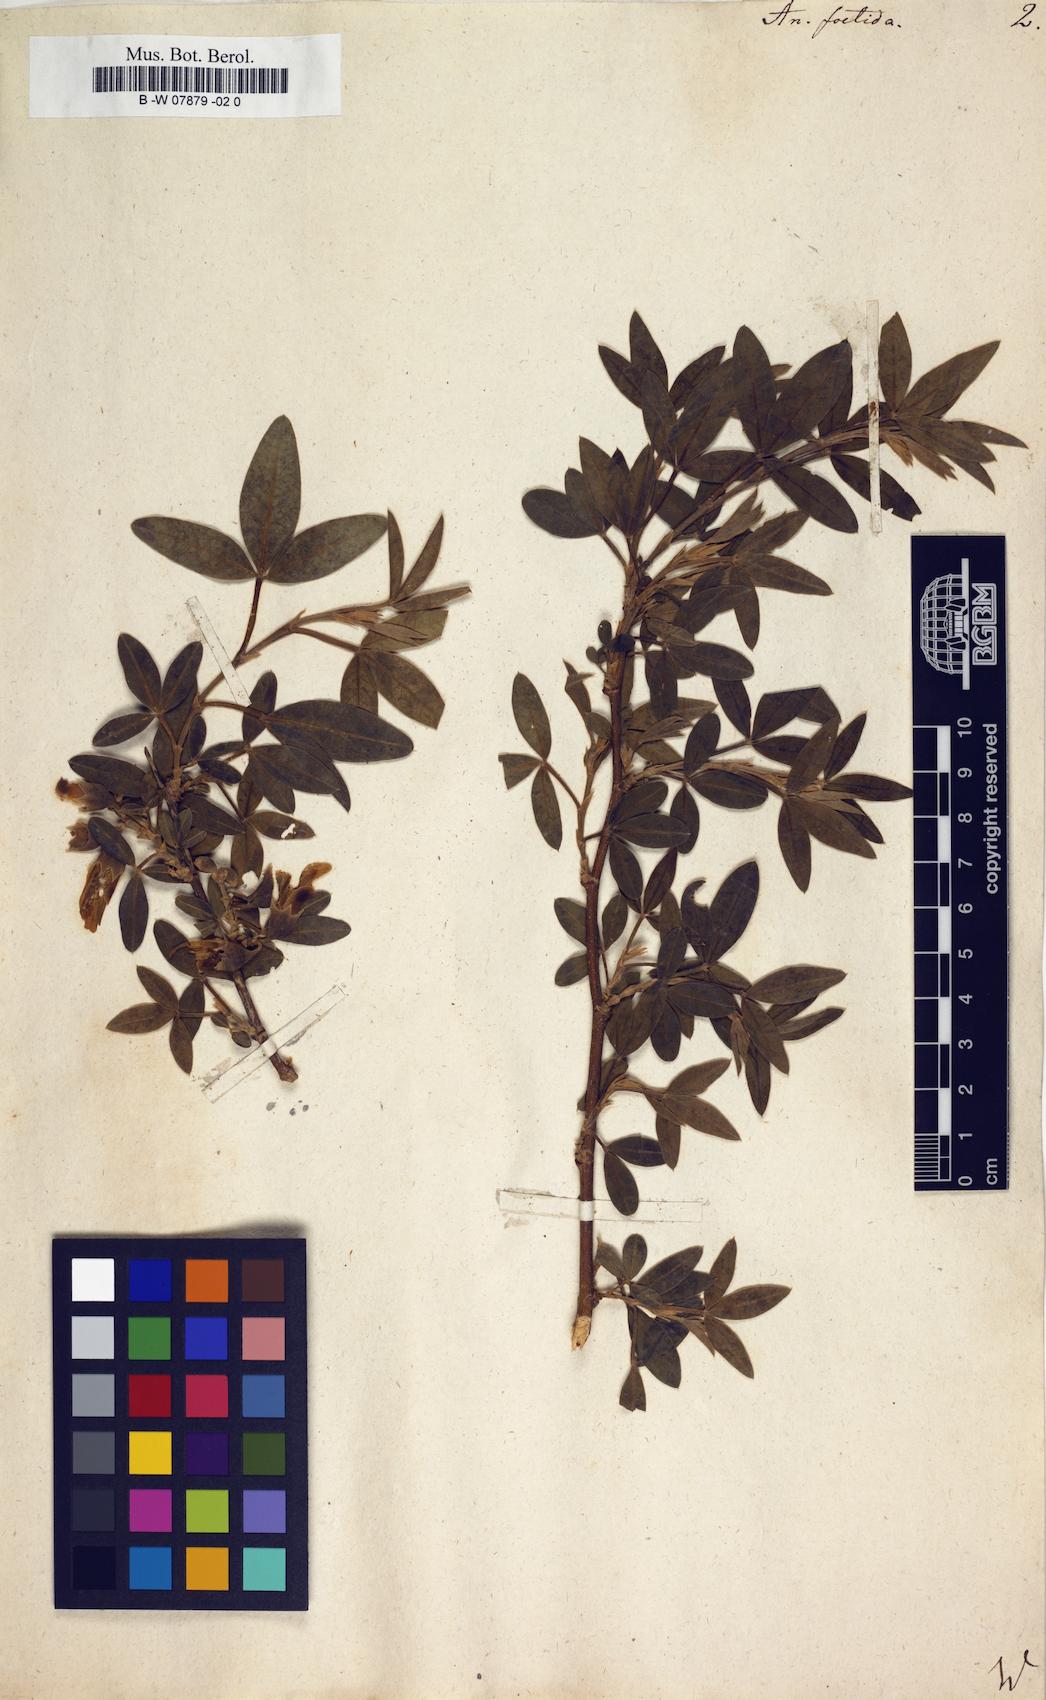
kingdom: Plantae
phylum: Tracheophyta
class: Magnoliopsida
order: Fabales
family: Fabaceae
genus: Anagyris
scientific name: Anagyris foetida
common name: Stinking bean trefoil
